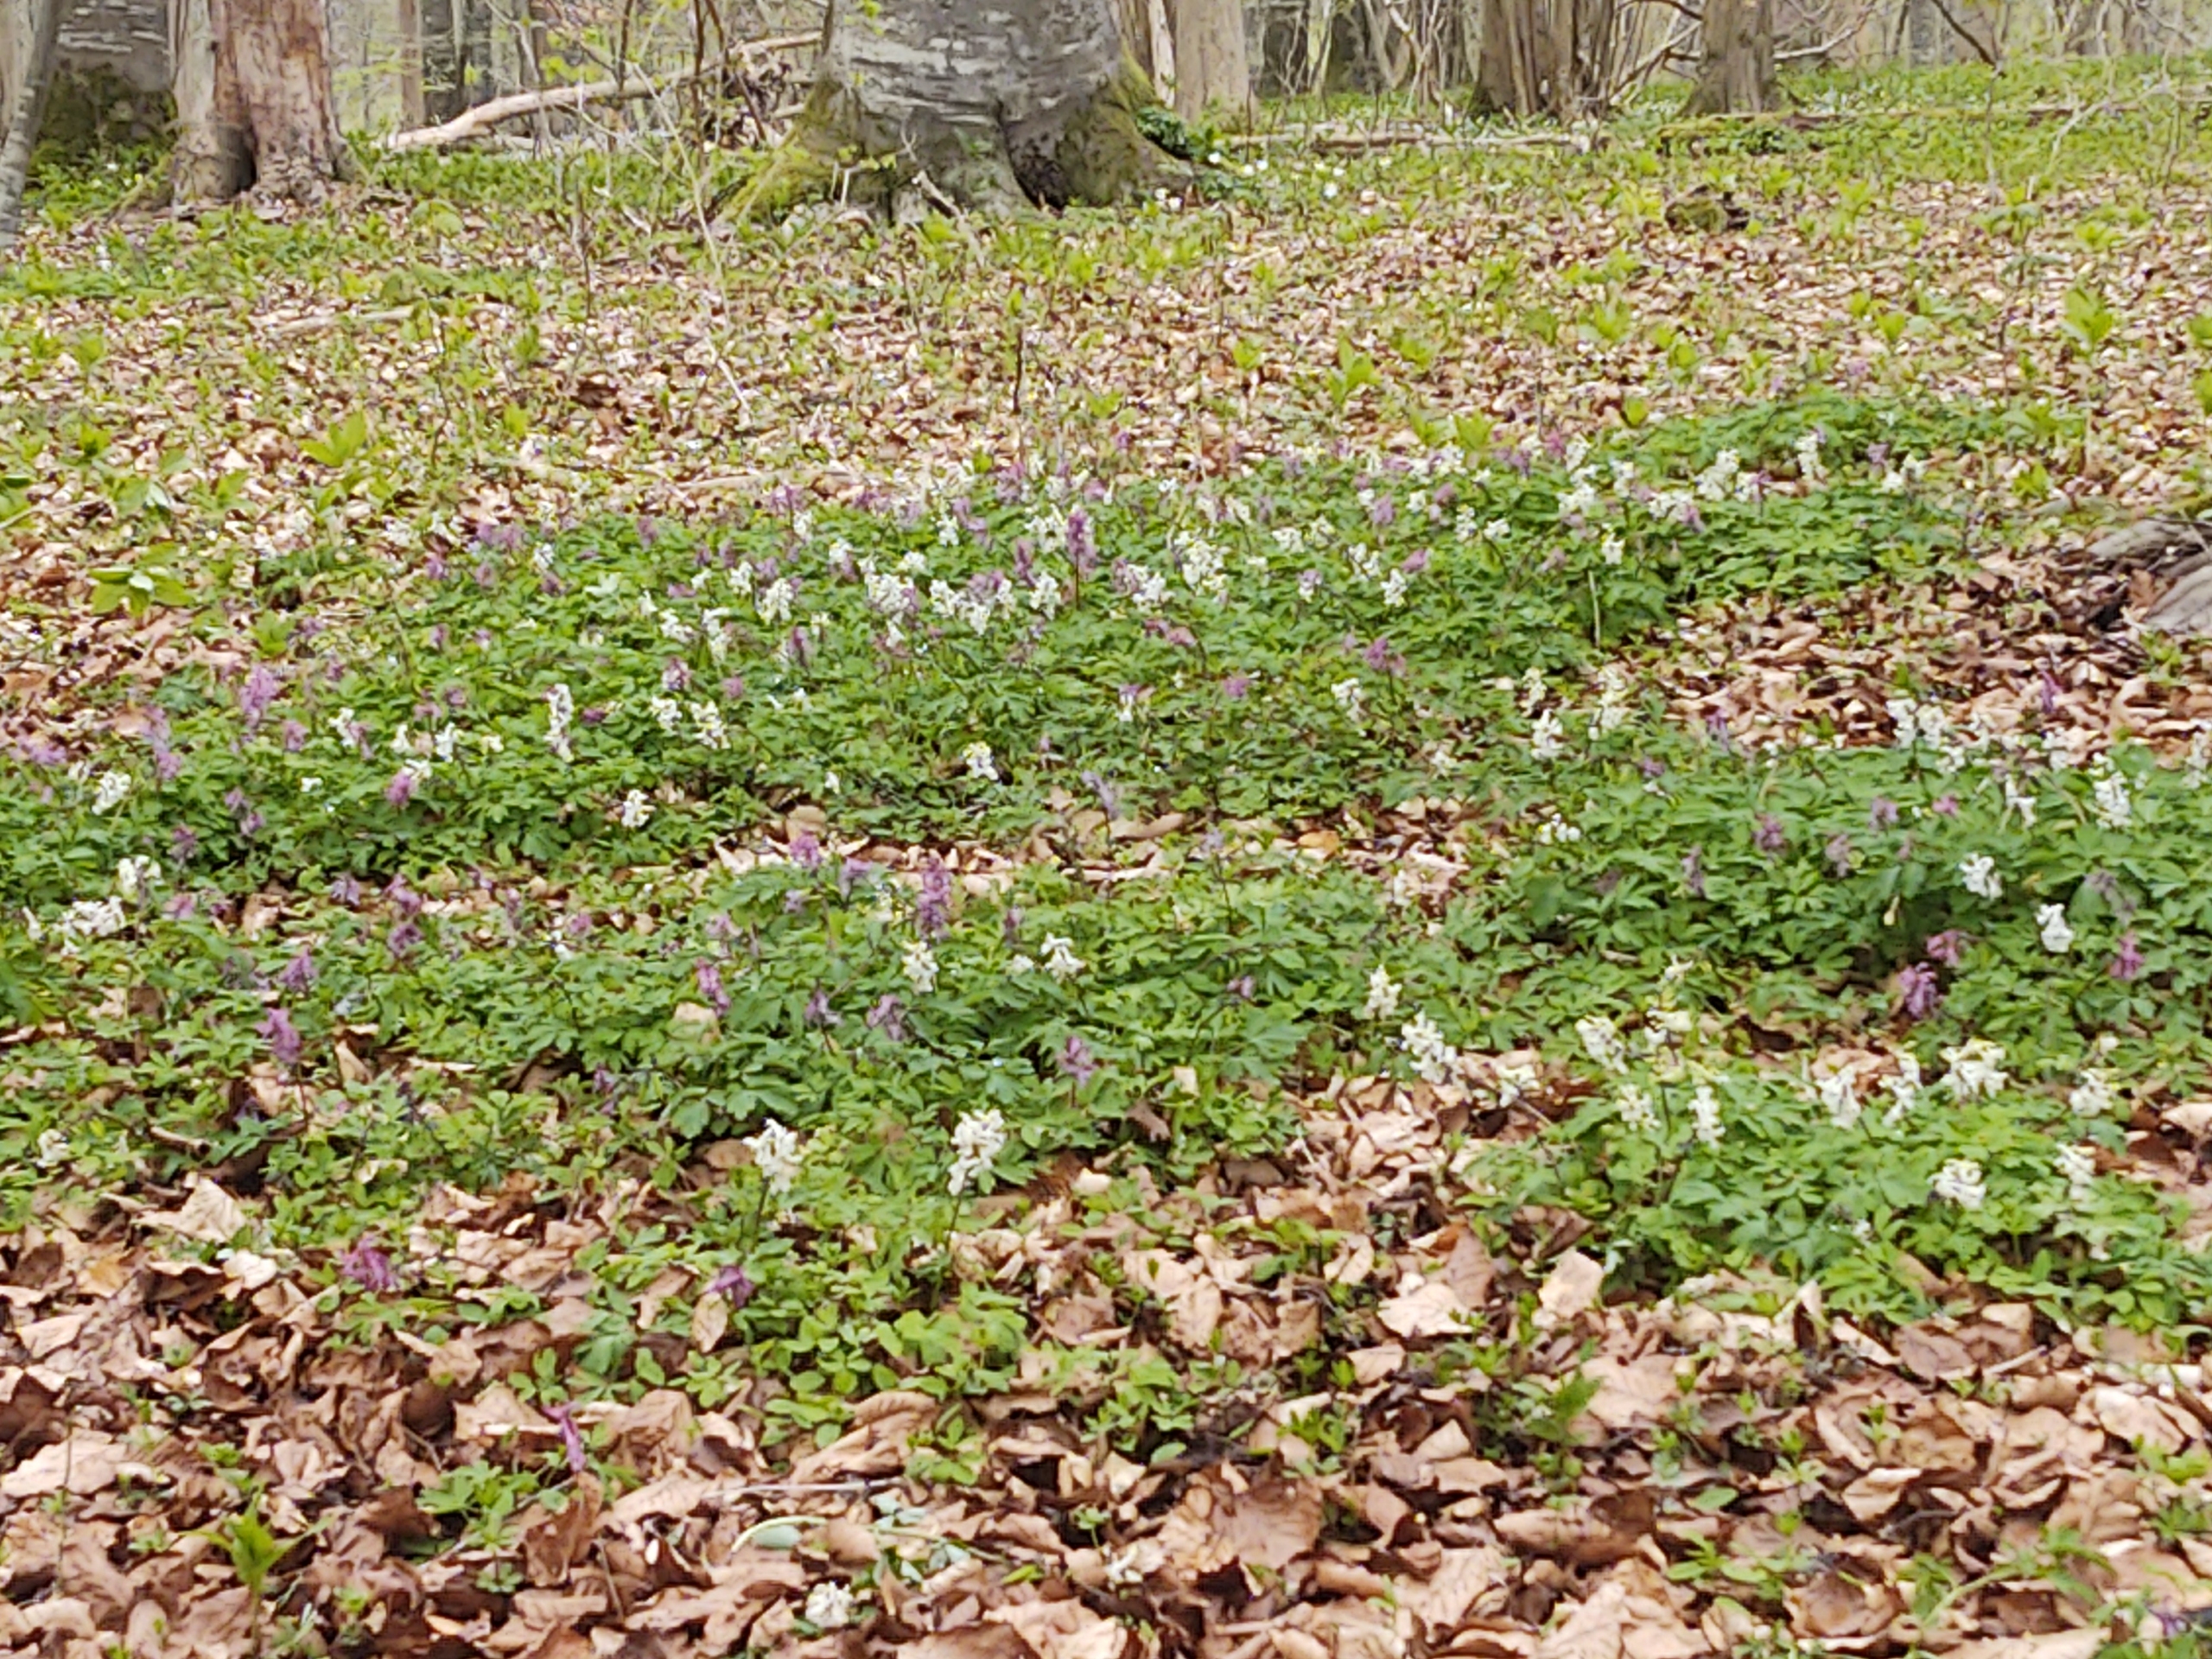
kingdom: Plantae
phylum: Tracheophyta
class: Magnoliopsida
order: Ranunculales
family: Papaveraceae
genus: Corydalis
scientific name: Corydalis cava
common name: Hulrodet lærkespore
